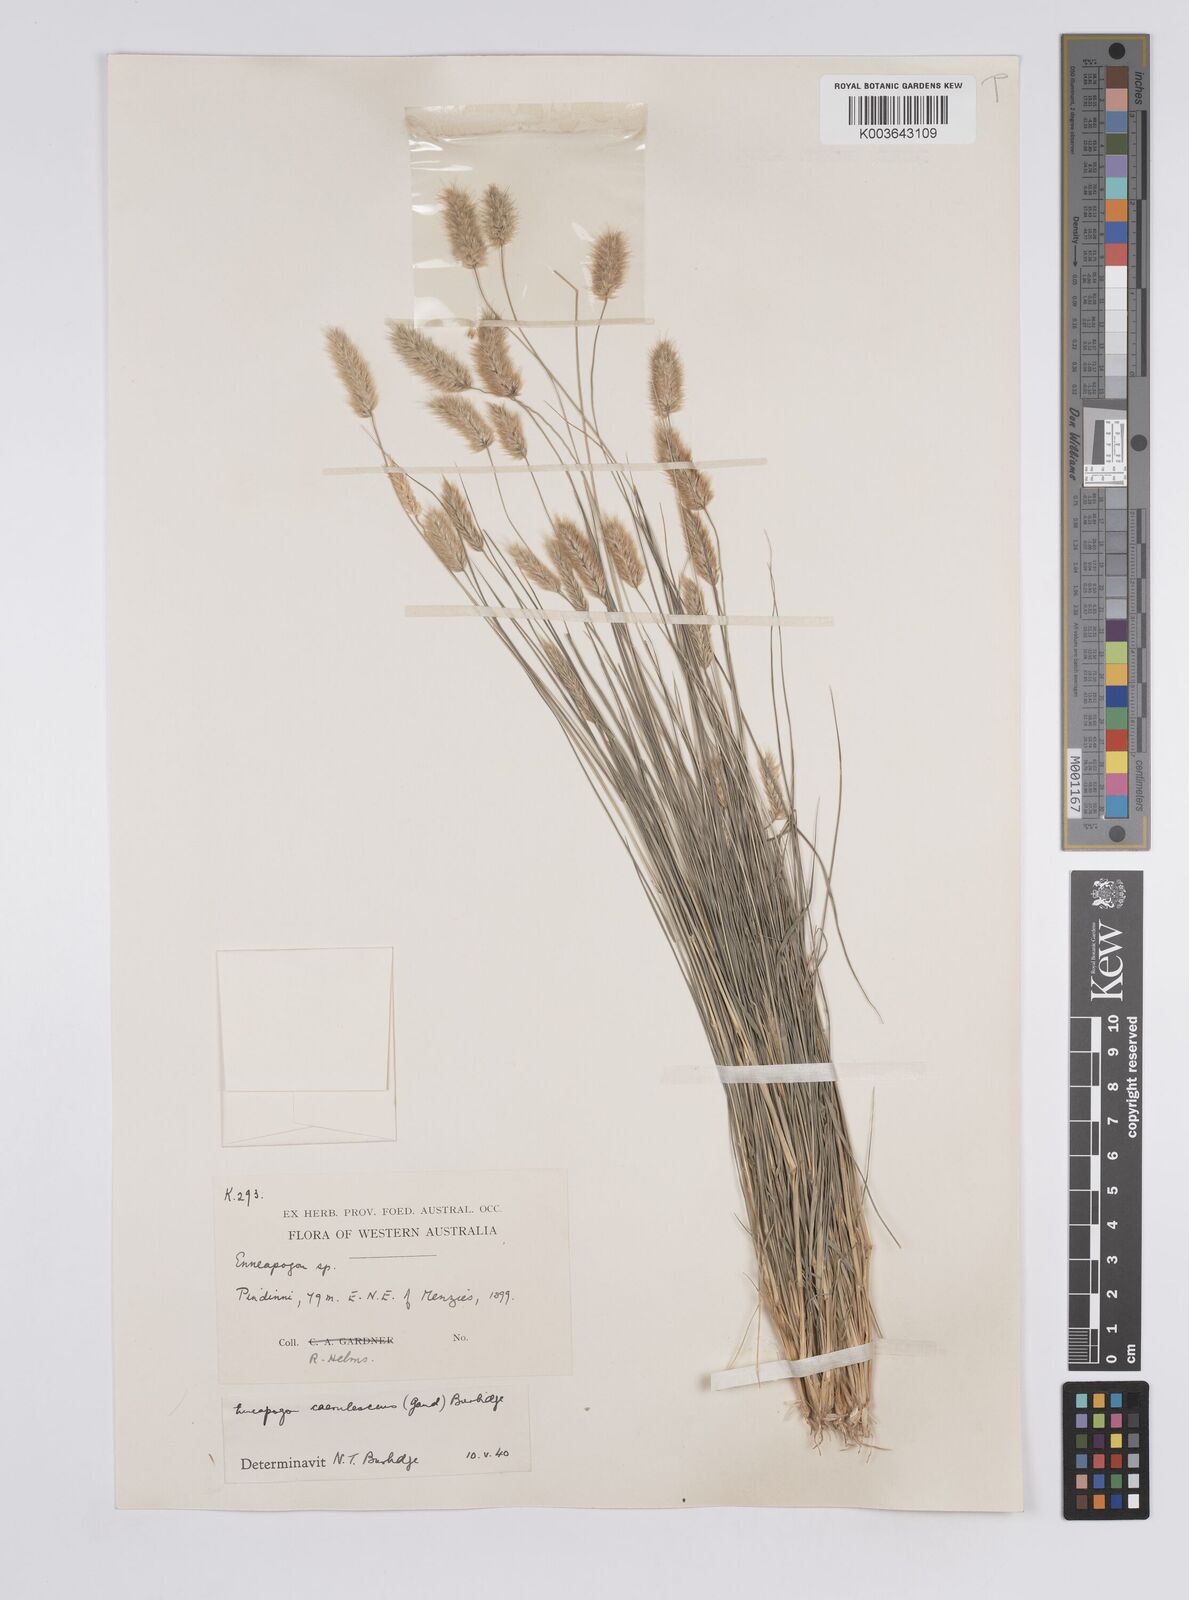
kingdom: Plantae
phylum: Tracheophyta
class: Liliopsida
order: Poales
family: Poaceae
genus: Enneapogon
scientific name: Enneapogon caerulescens
